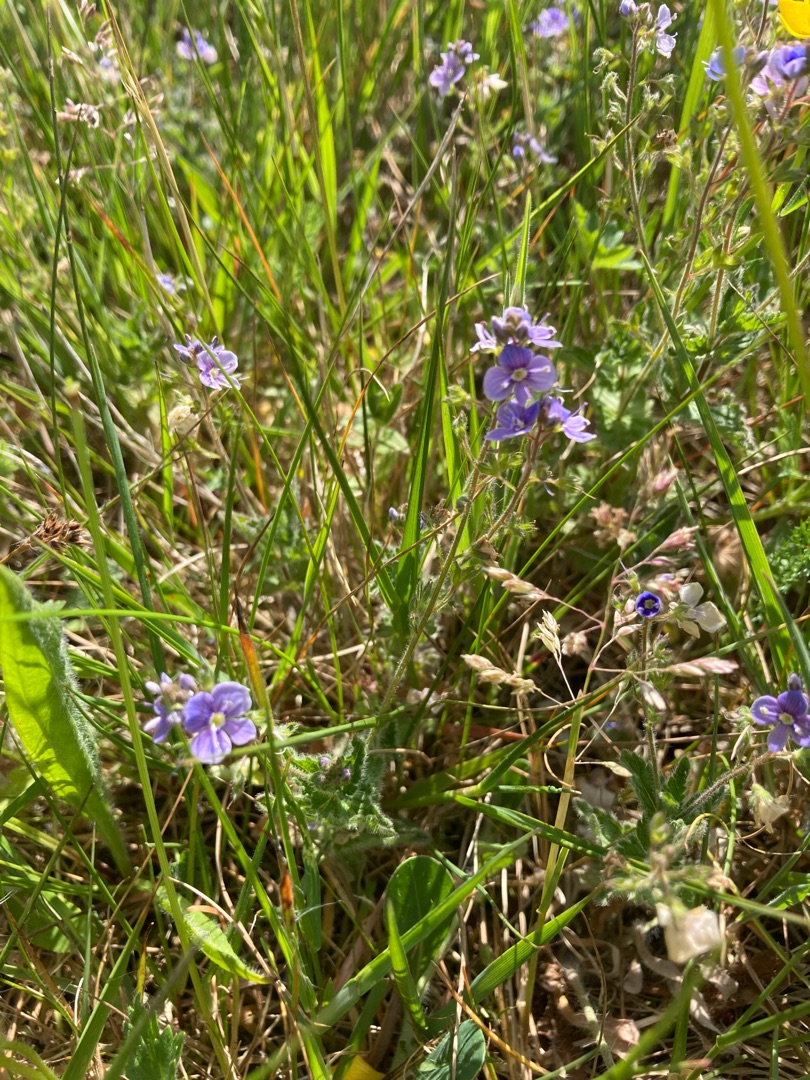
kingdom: Plantae
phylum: Tracheophyta
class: Magnoliopsida
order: Lamiales
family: Plantaginaceae
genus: Veronica
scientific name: Veronica chamaedrys
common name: Tveskægget ærenpris
